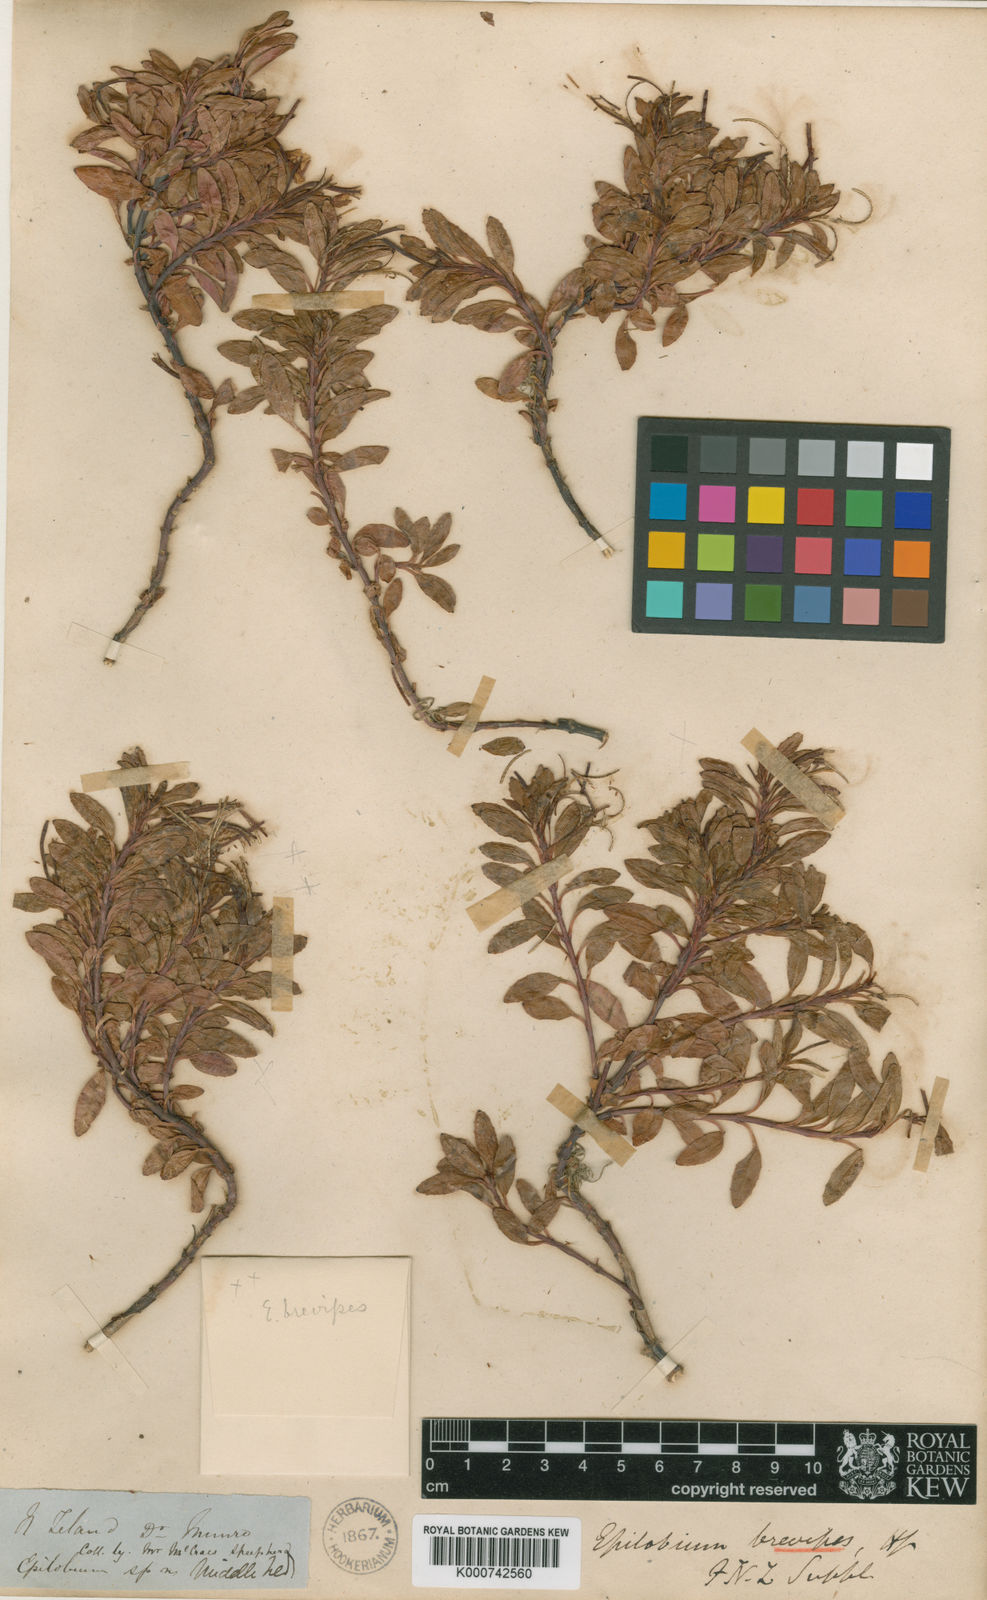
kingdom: Plantae
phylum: Tracheophyta
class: Magnoliopsida
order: Myrtales
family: Onagraceae
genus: Epilobium
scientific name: Epilobium brevipes
